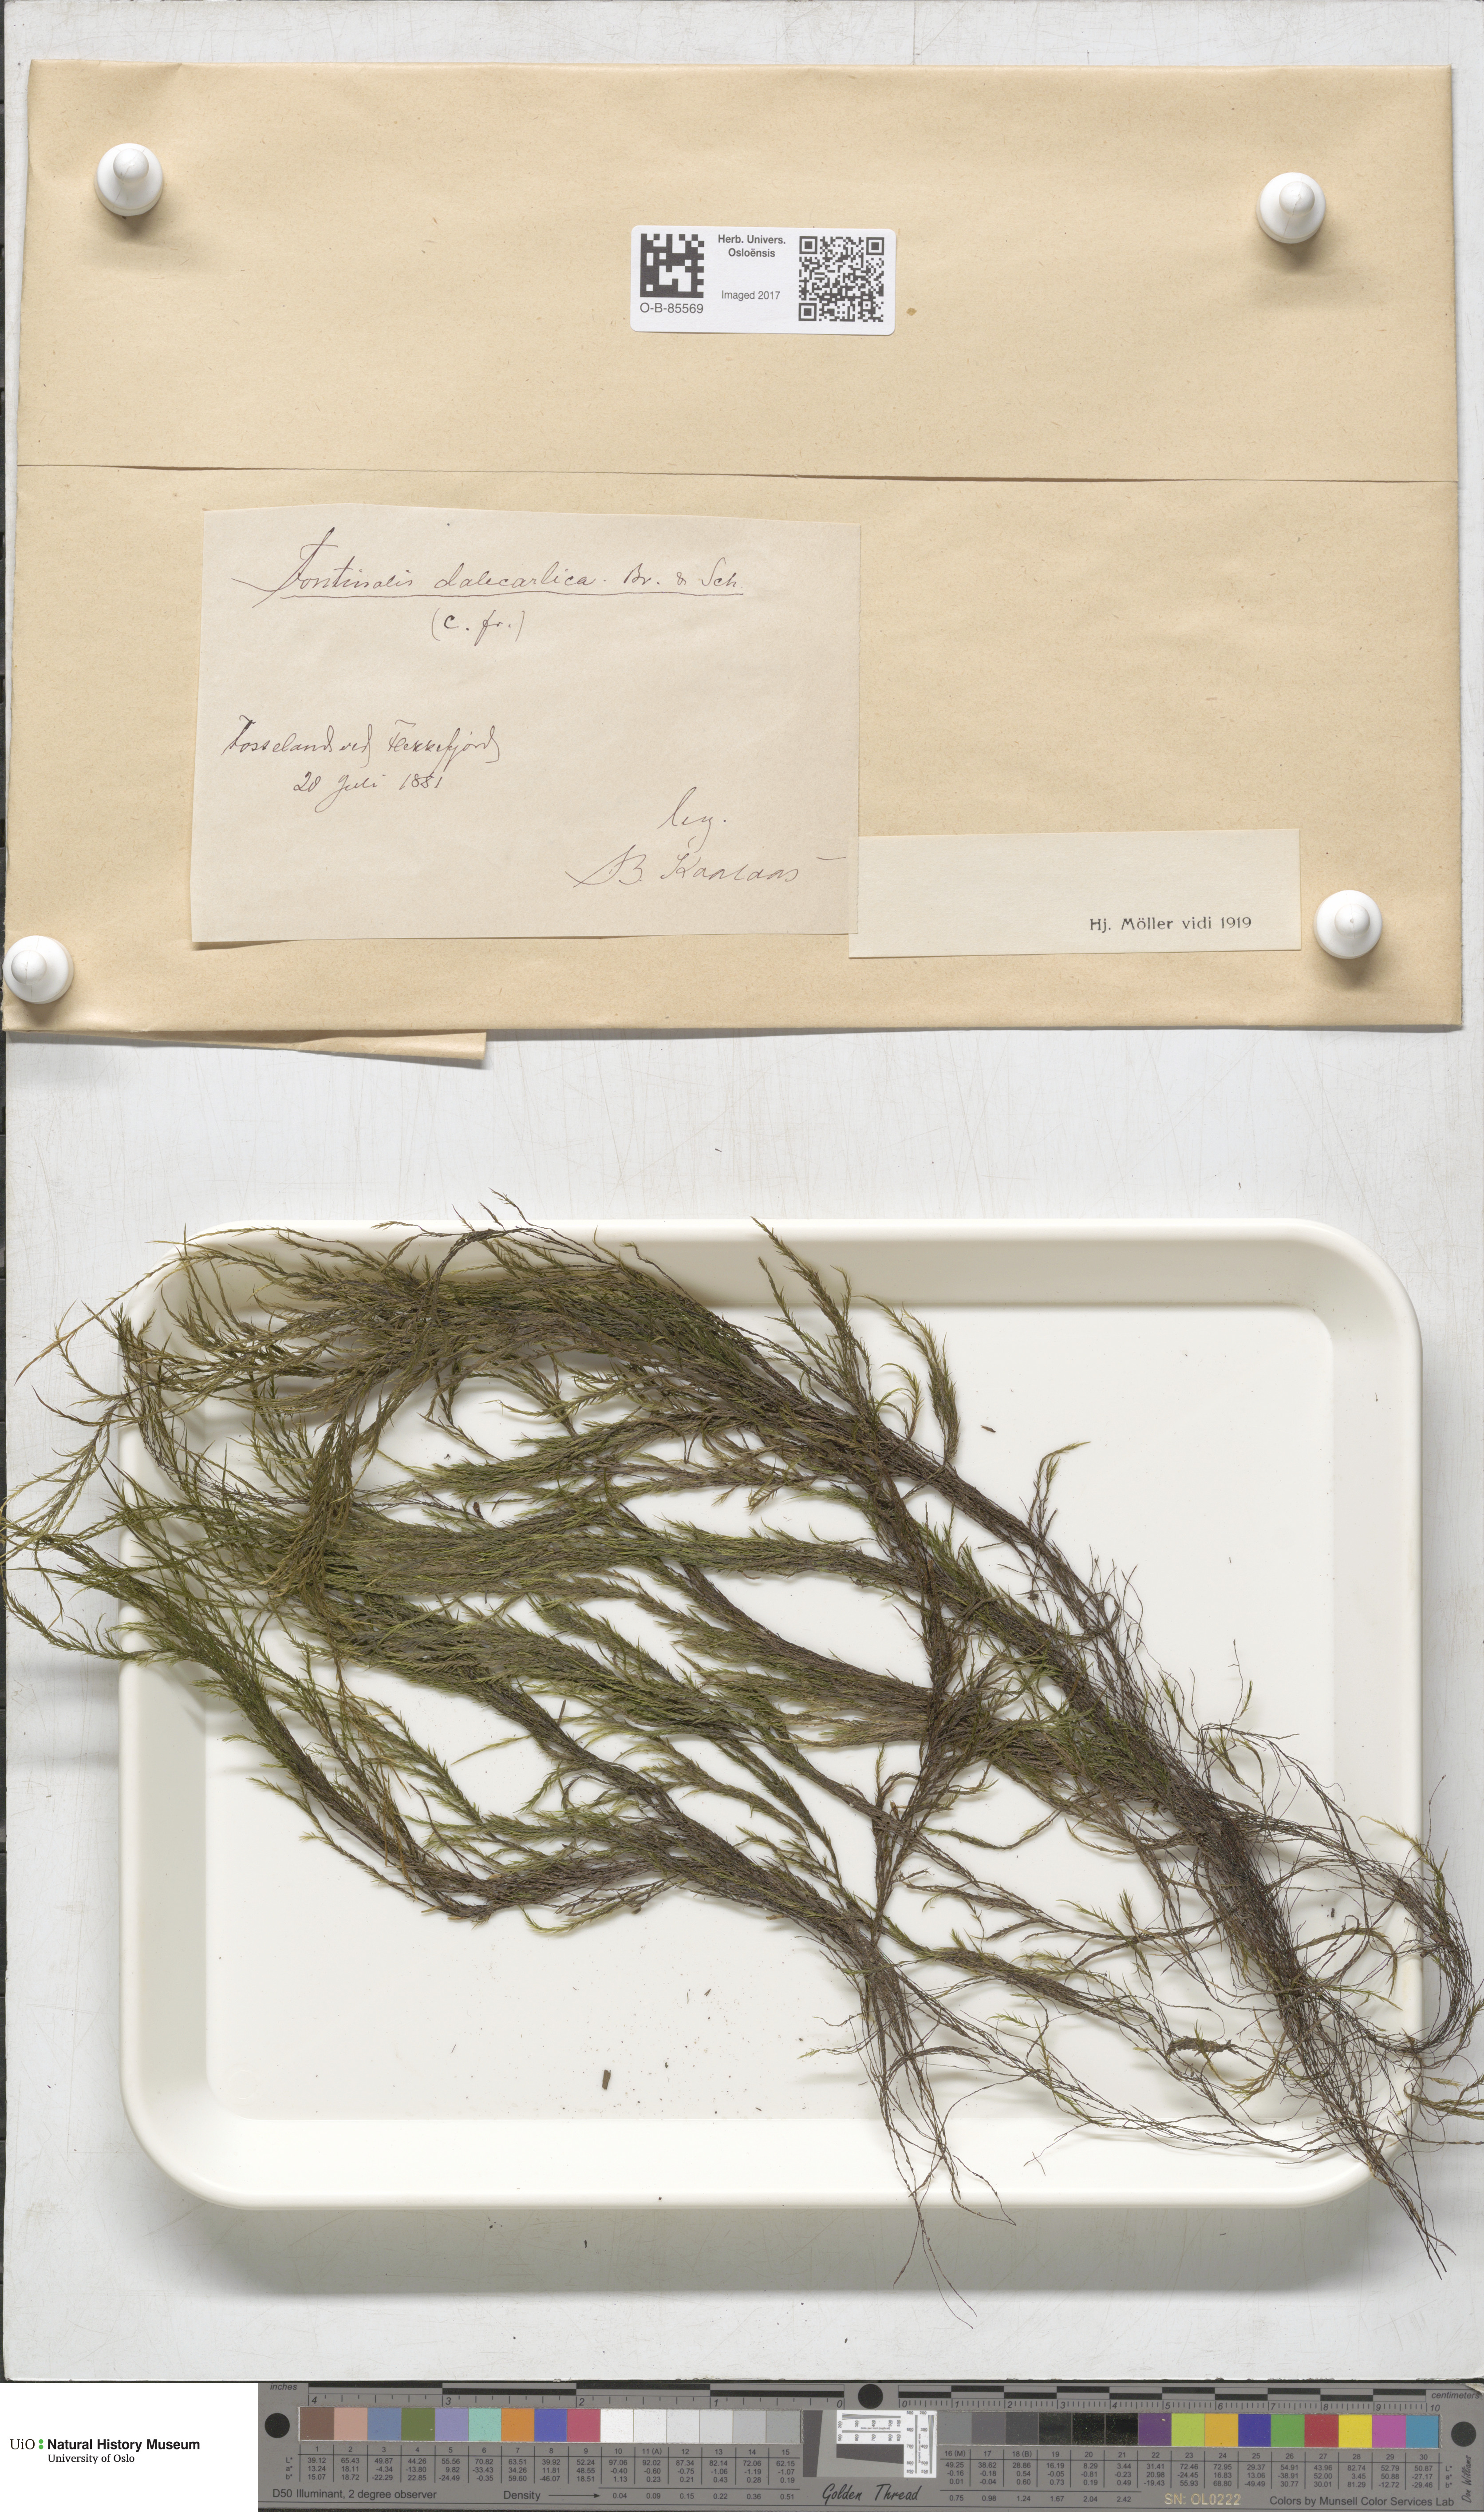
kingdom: Plantae
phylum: Bryophyta
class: Bryopsida
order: Hypnales
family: Fontinalaceae
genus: Fontinalis
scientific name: Fontinalis dalecarlica
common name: Slender water moss
